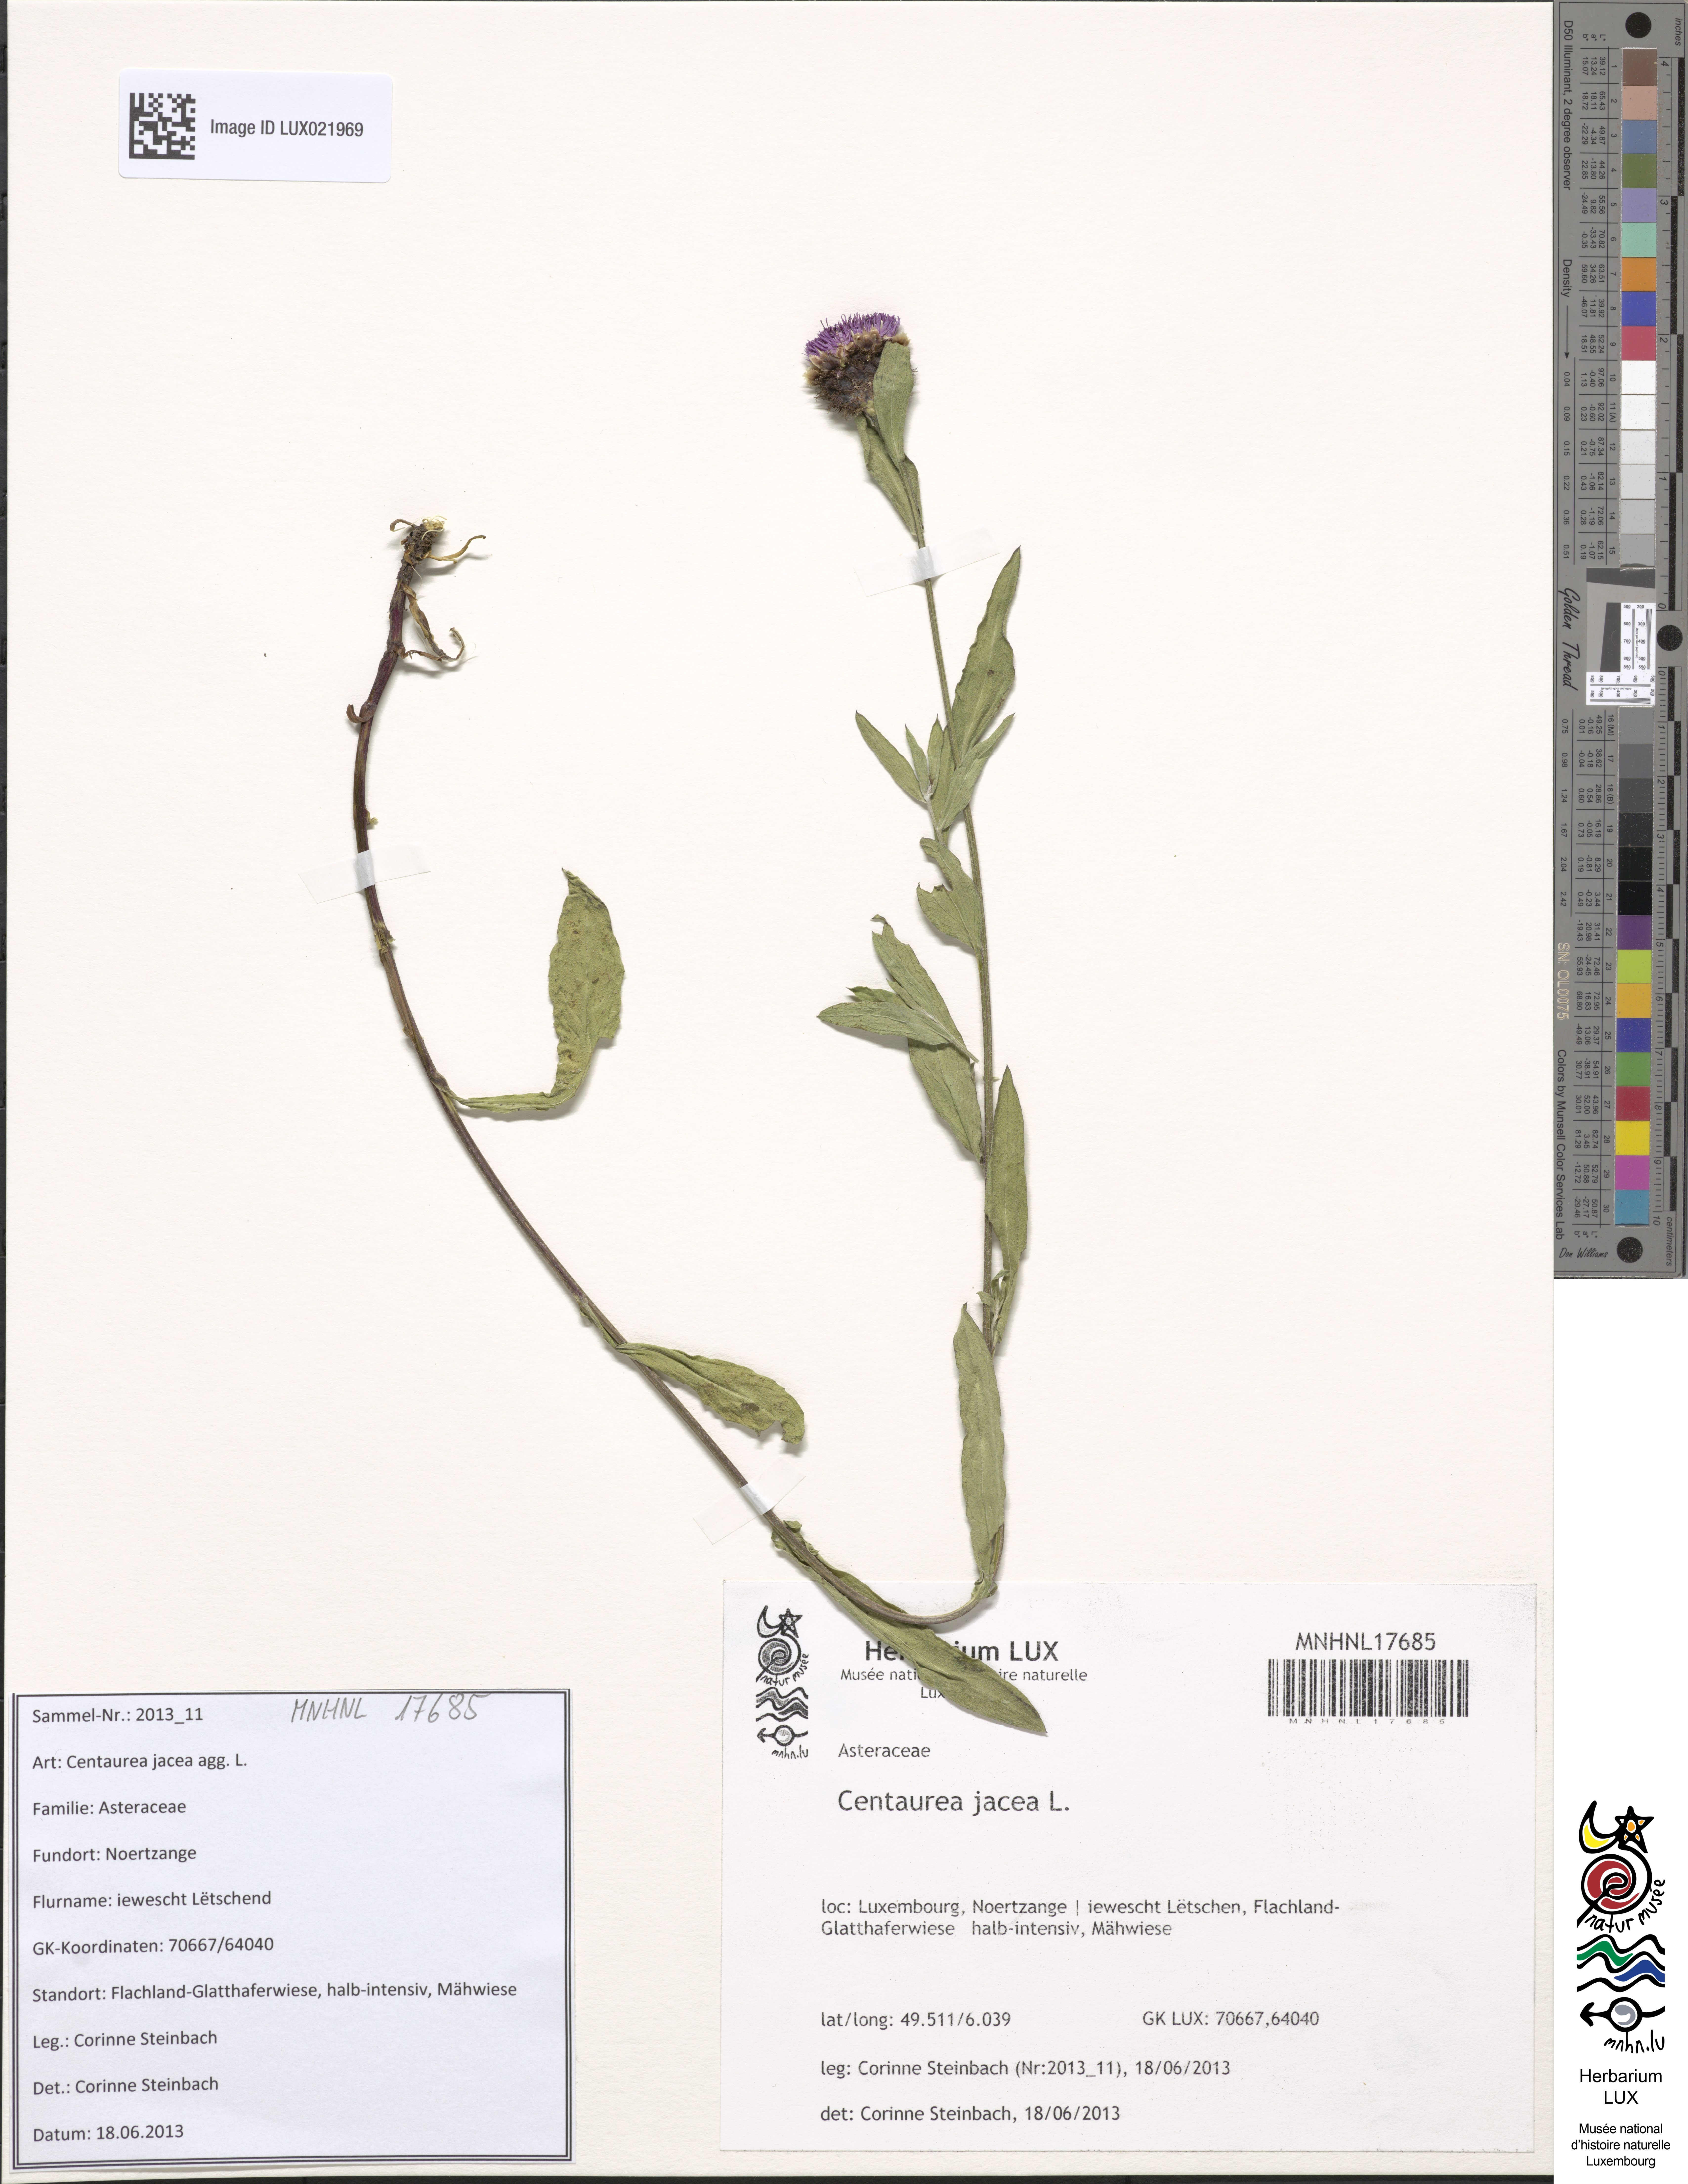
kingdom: Plantae
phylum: Tracheophyta
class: Magnoliopsida
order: Asterales
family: Asteraceae
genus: Centaurea
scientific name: Centaurea jacea
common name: Brown knapweed
